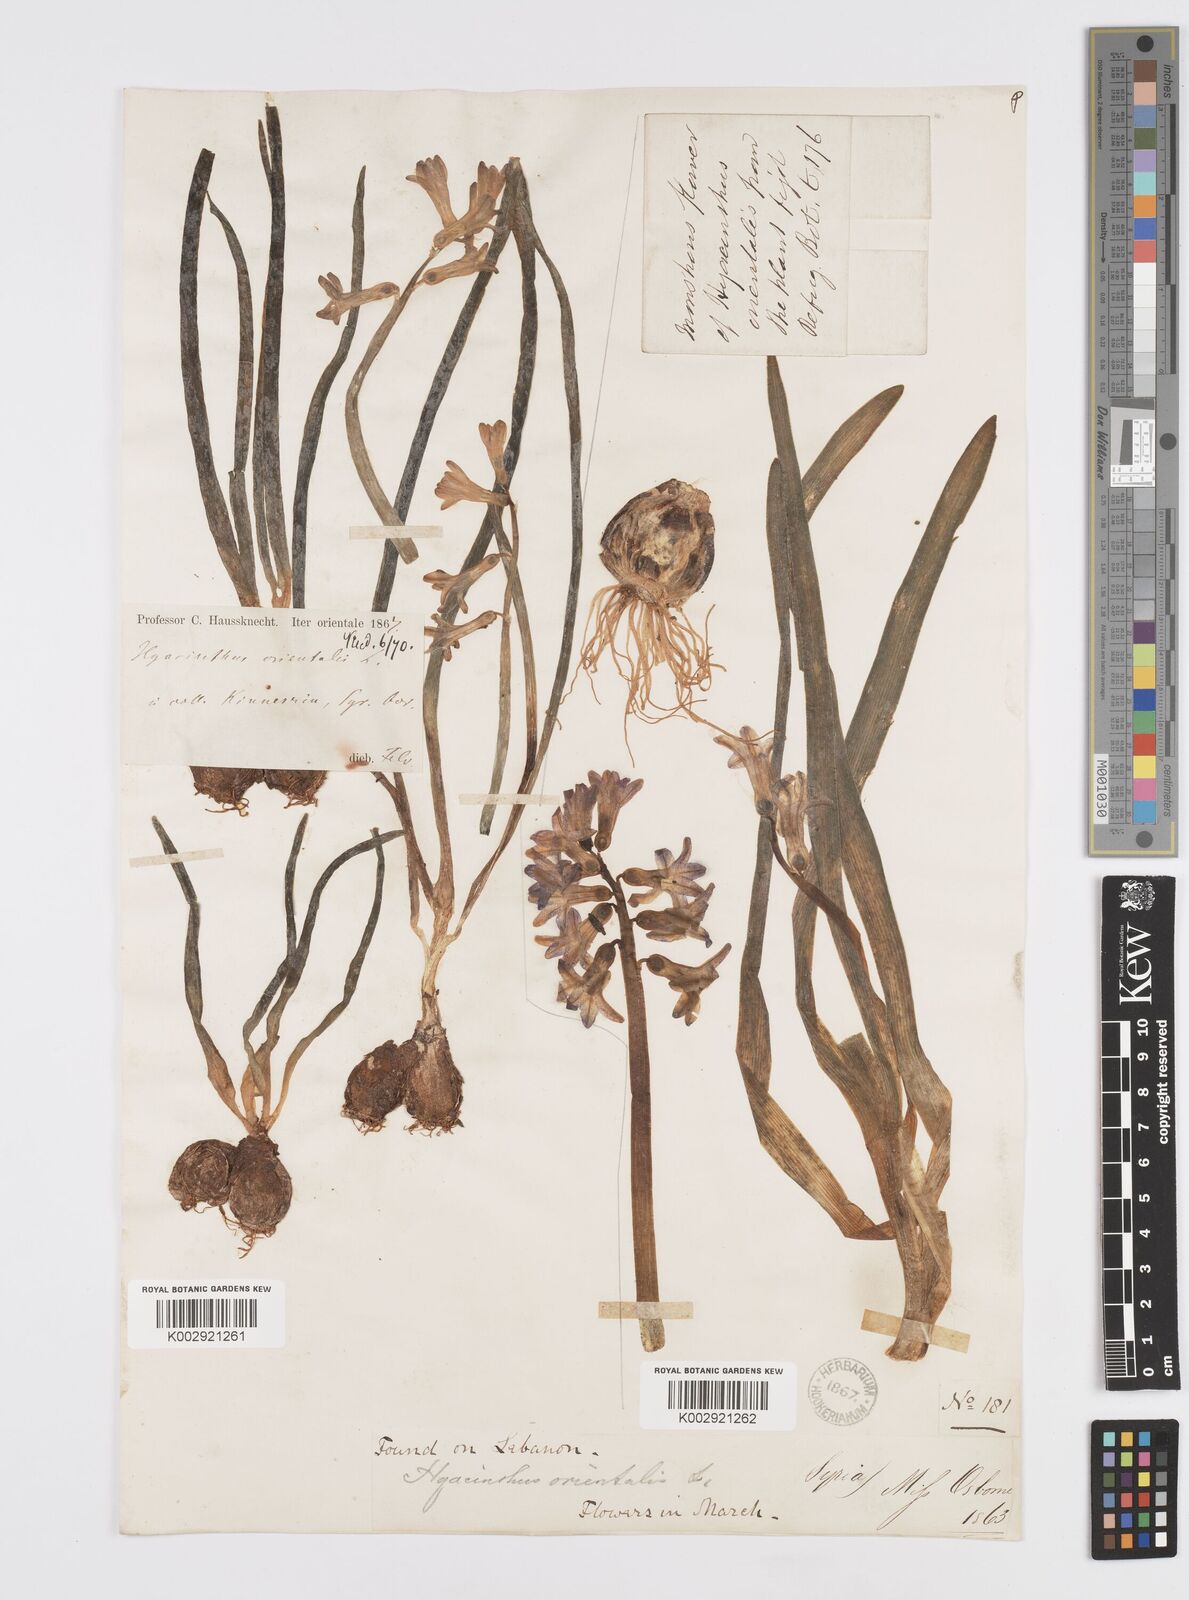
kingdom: Plantae
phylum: Tracheophyta
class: Liliopsida
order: Asparagales
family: Asparagaceae
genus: Hyacinthus
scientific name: Hyacinthus orientalis
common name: Hyacinth
